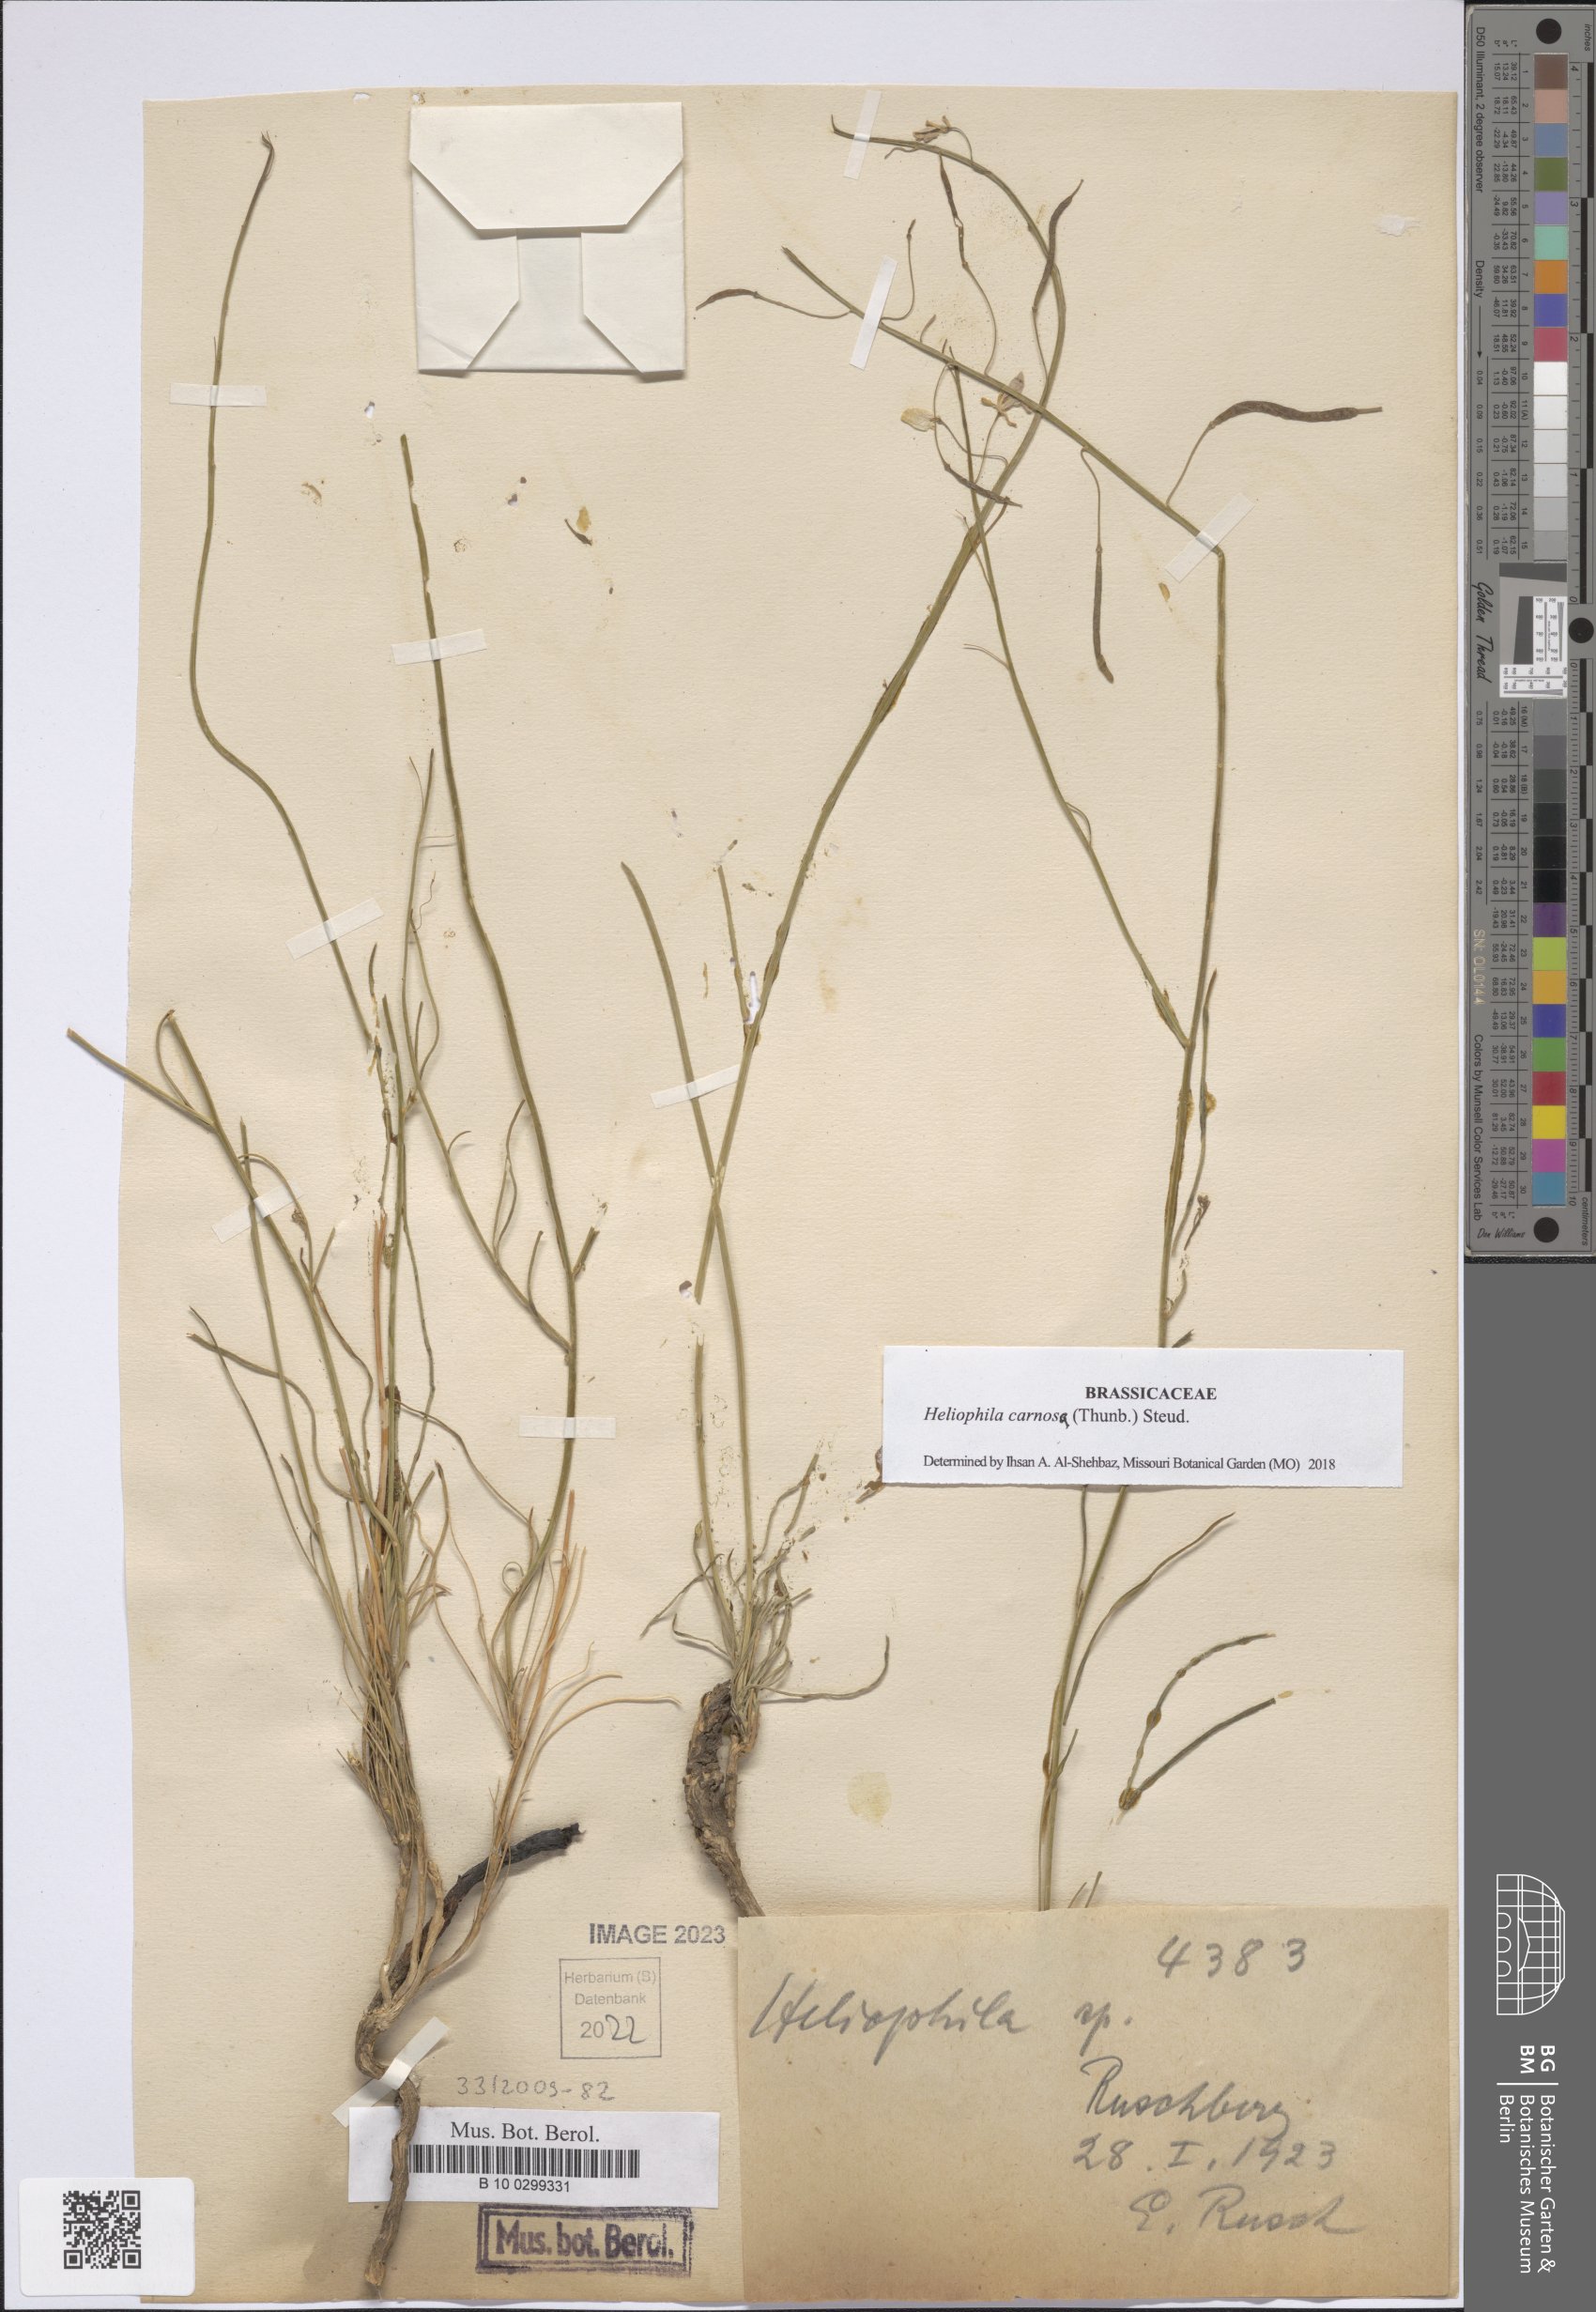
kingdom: Plantae
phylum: Tracheophyta
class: Magnoliopsida
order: Brassicales
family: Brassicaceae
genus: Heliophila
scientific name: Heliophila carnosa
